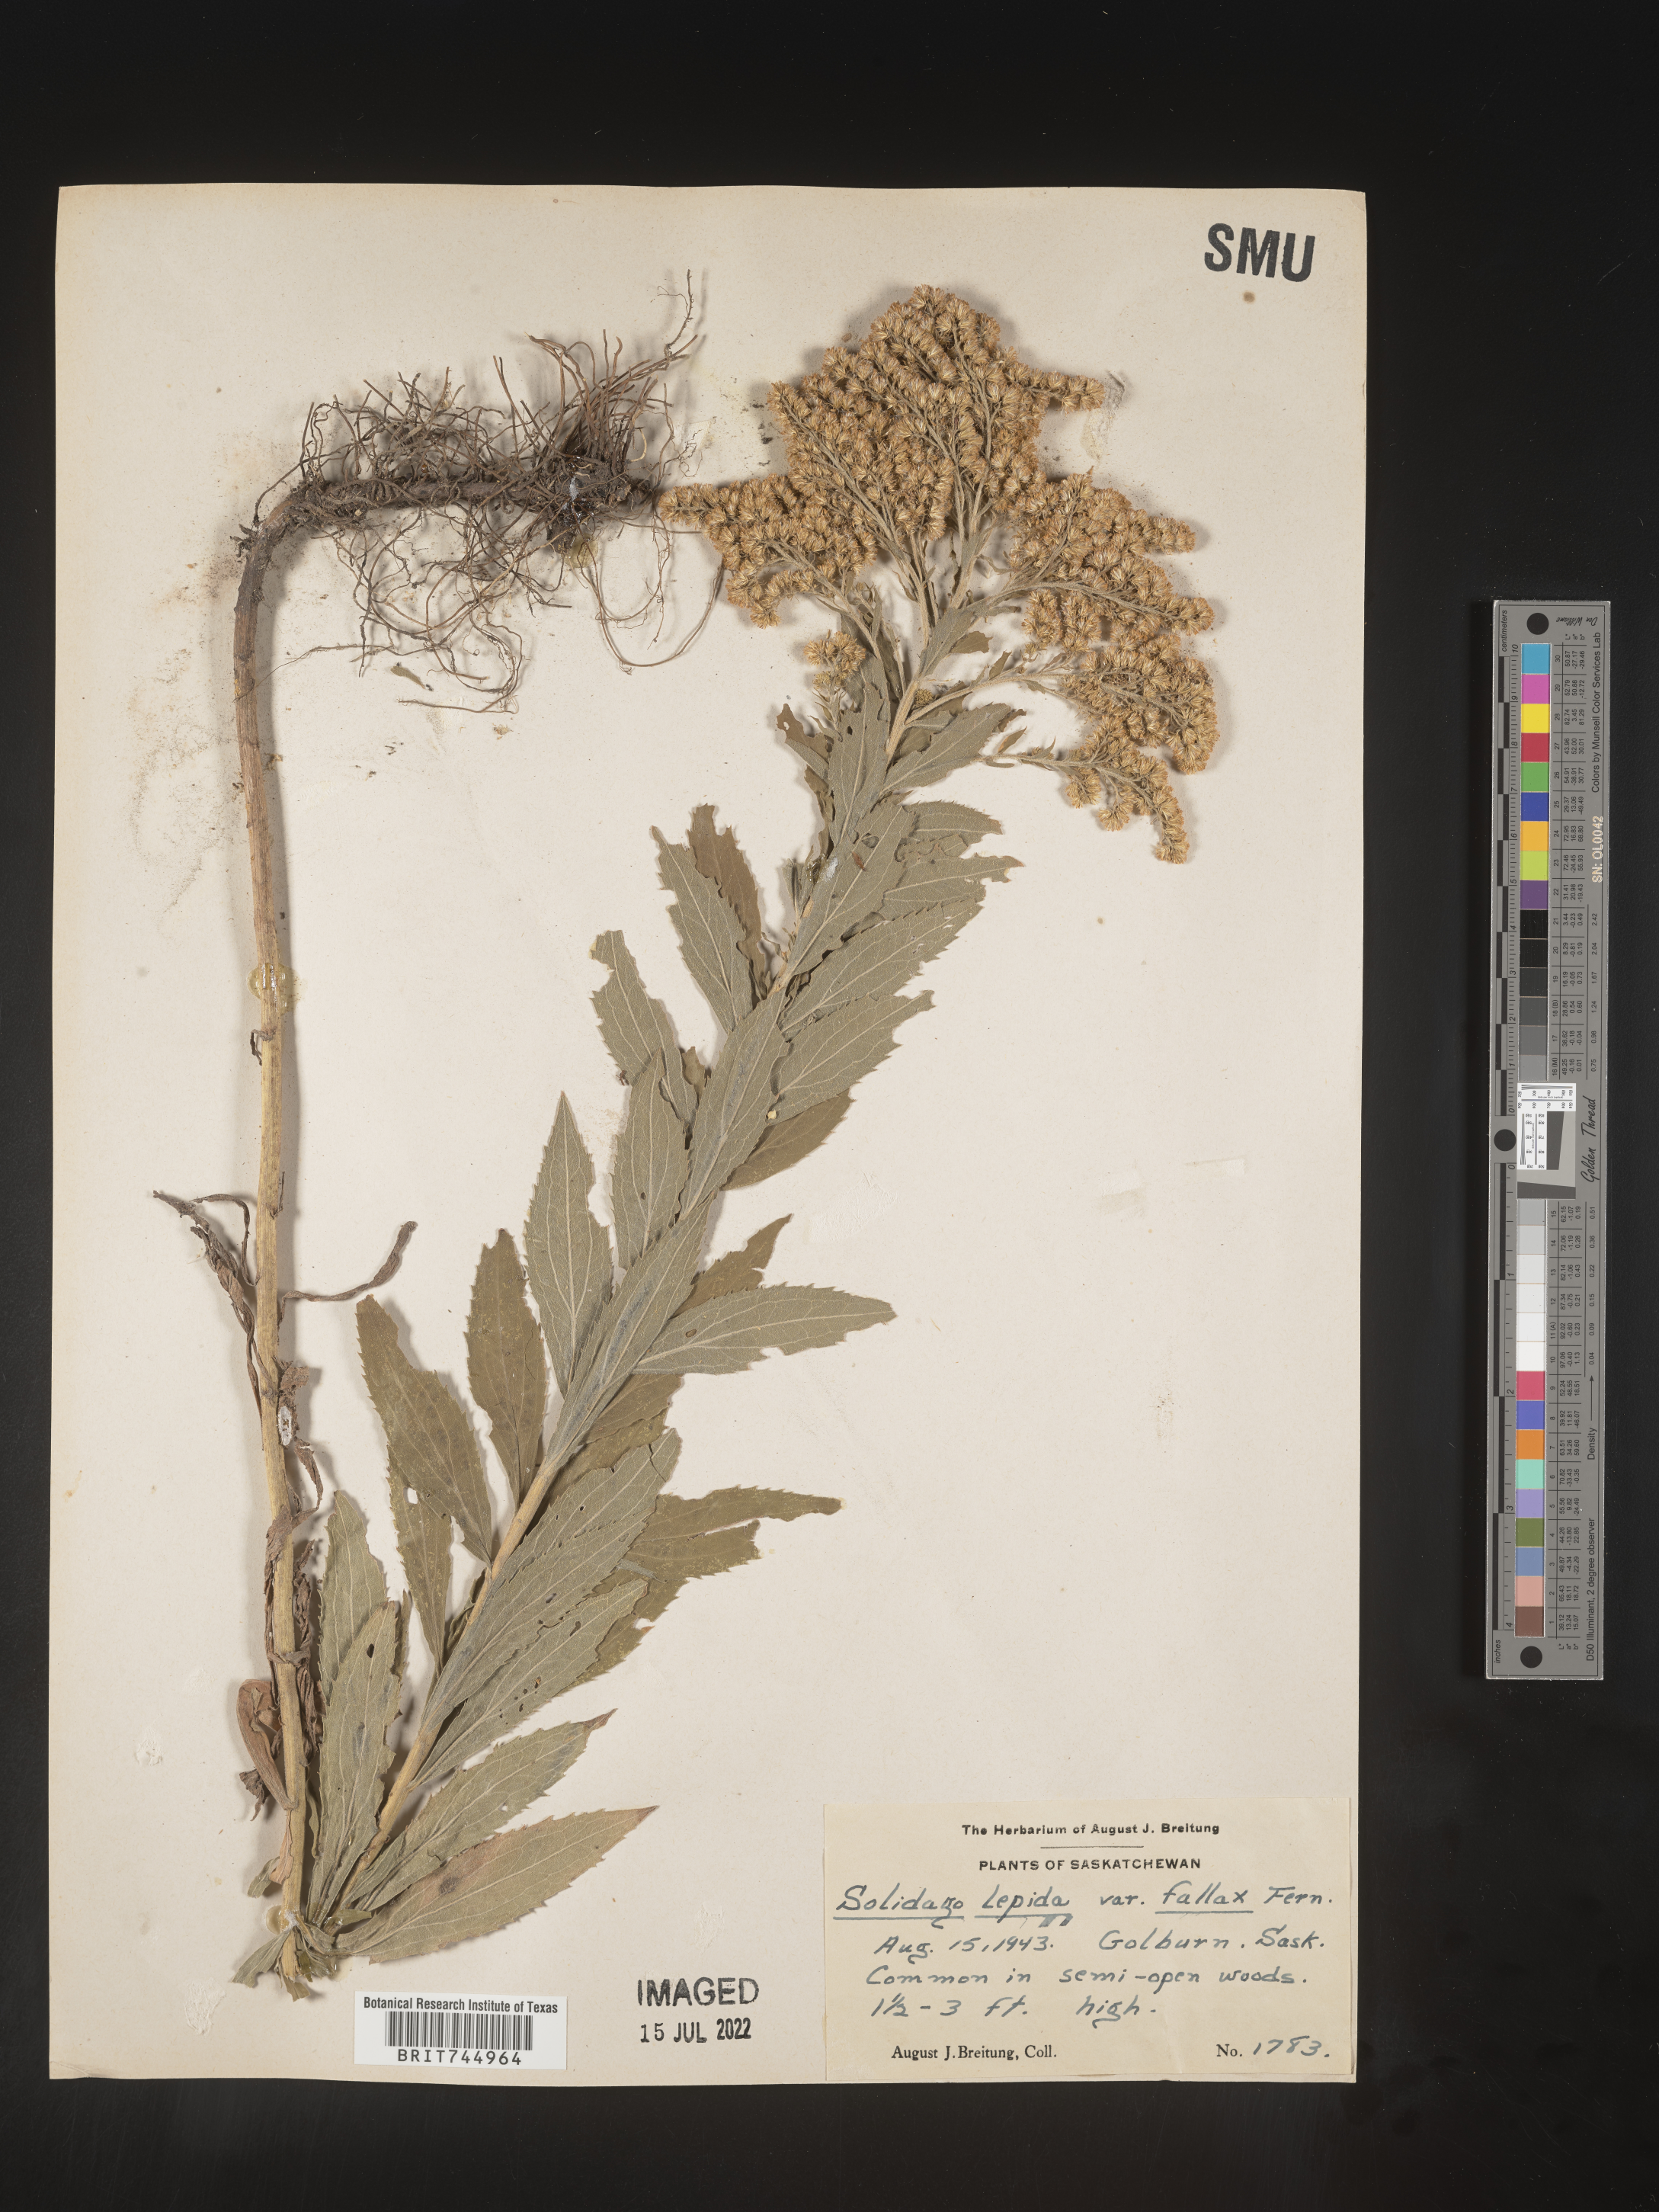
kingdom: Plantae
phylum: Tracheophyta
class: Magnoliopsida
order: Asterales
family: Asteraceae
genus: Solidago
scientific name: Solidago canadensis
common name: Canada goldenrod
